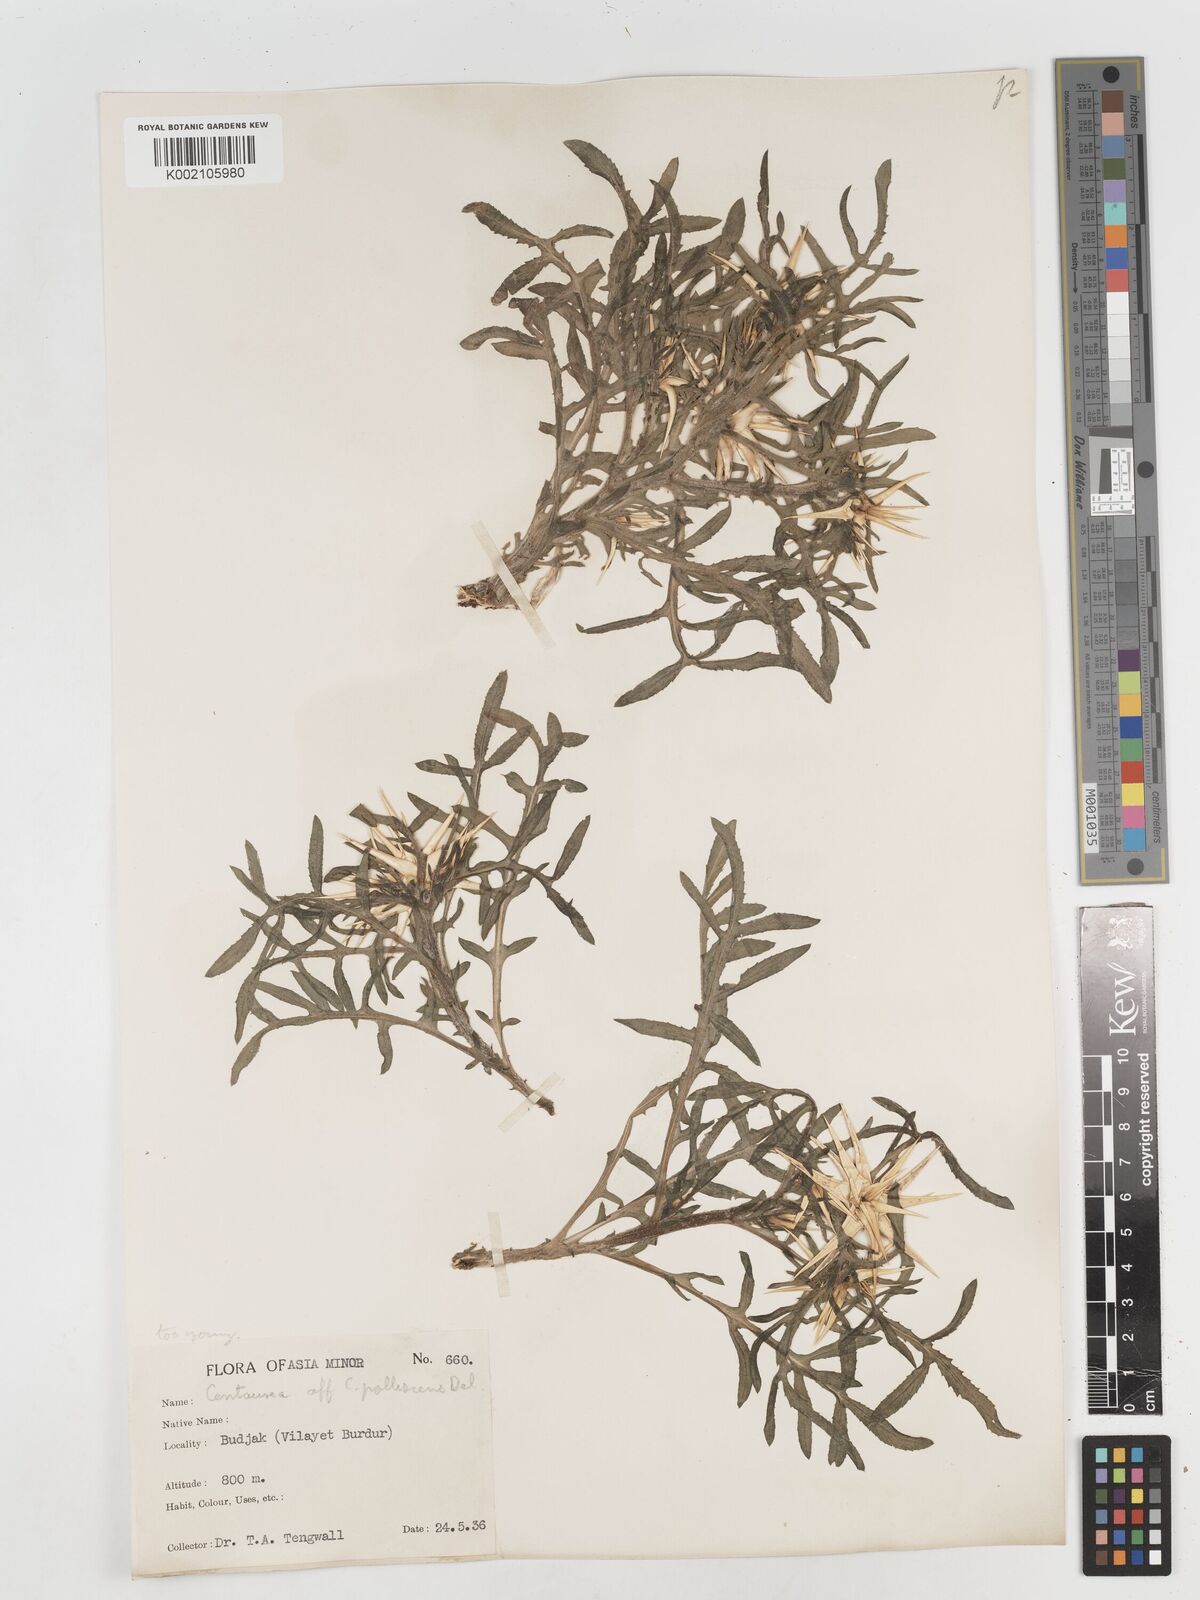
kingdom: Plantae
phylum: Tracheophyta
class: Magnoliopsida
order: Asterales
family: Asteraceae
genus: Centaurea
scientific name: Centaurea
